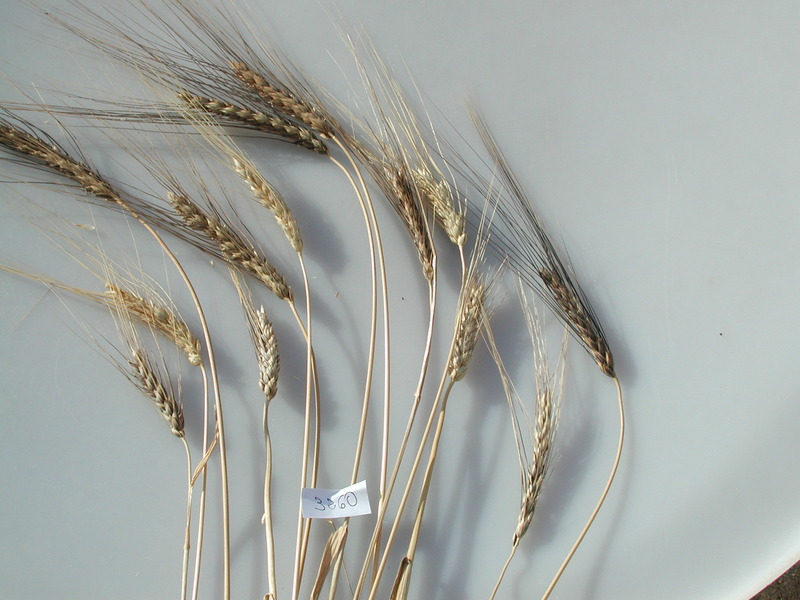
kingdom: Plantae
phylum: Tracheophyta
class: Liliopsida
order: Poales
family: Poaceae
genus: Triticum
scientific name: Triticum turgidum
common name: Wheat
